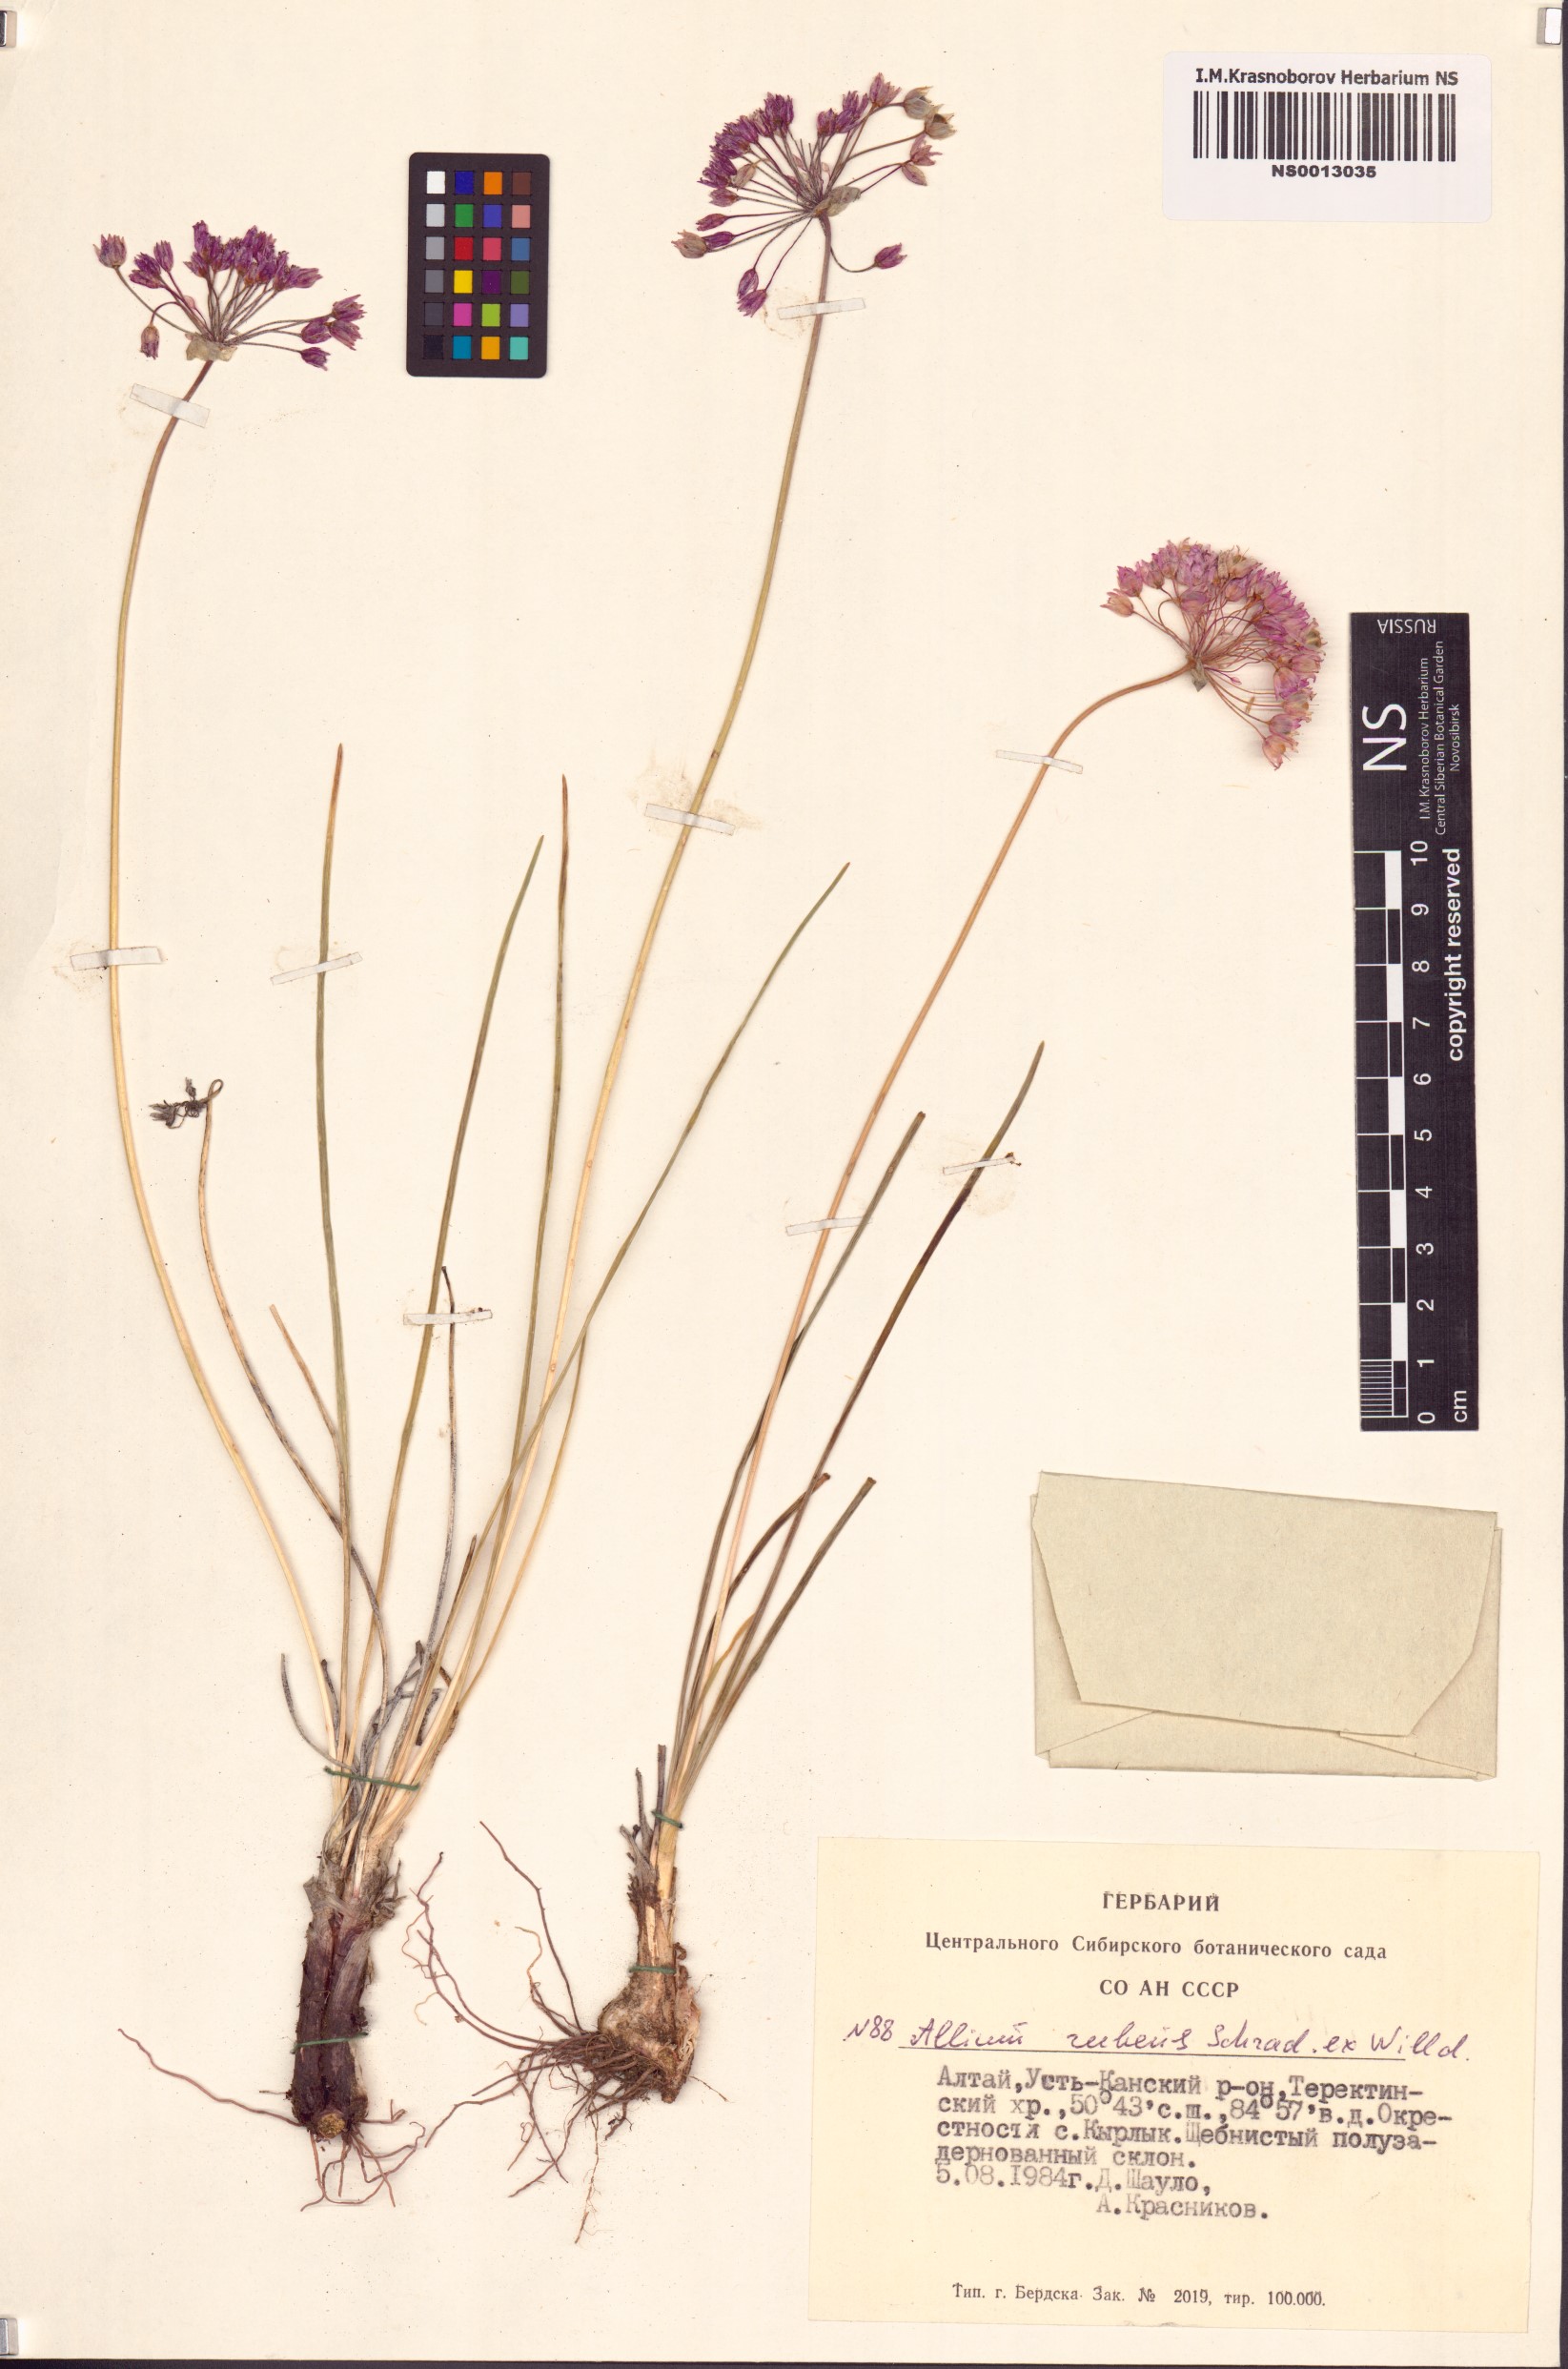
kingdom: Plantae
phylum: Tracheophyta
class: Liliopsida
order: Asparagales
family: Amaryllidaceae
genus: Allium
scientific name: Allium rubens
